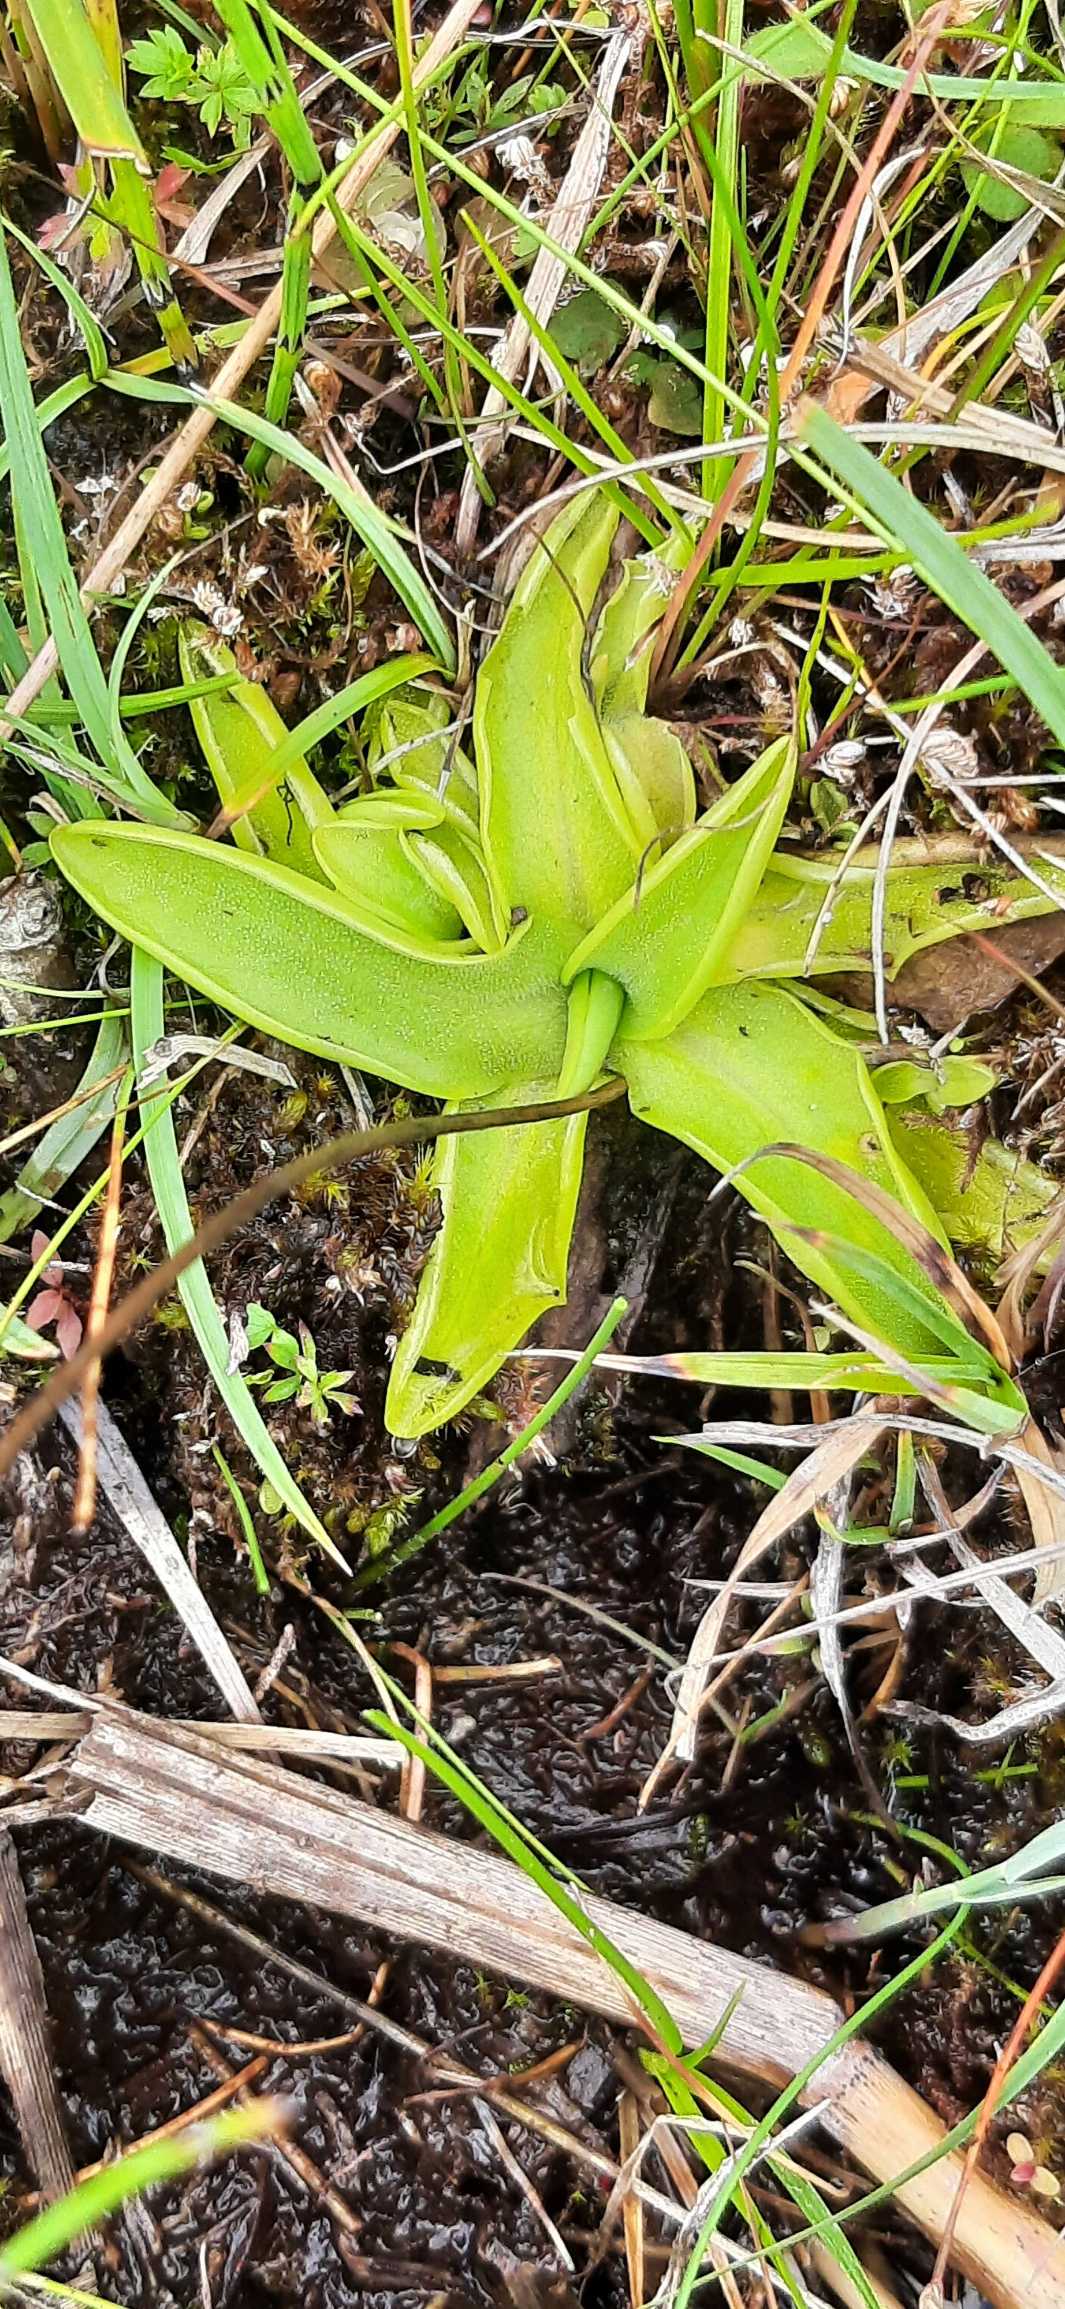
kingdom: Plantae
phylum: Tracheophyta
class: Magnoliopsida
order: Lamiales
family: Lentibulariaceae
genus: Pinguicula
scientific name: Pinguicula vulgaris
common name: Vibefedt
